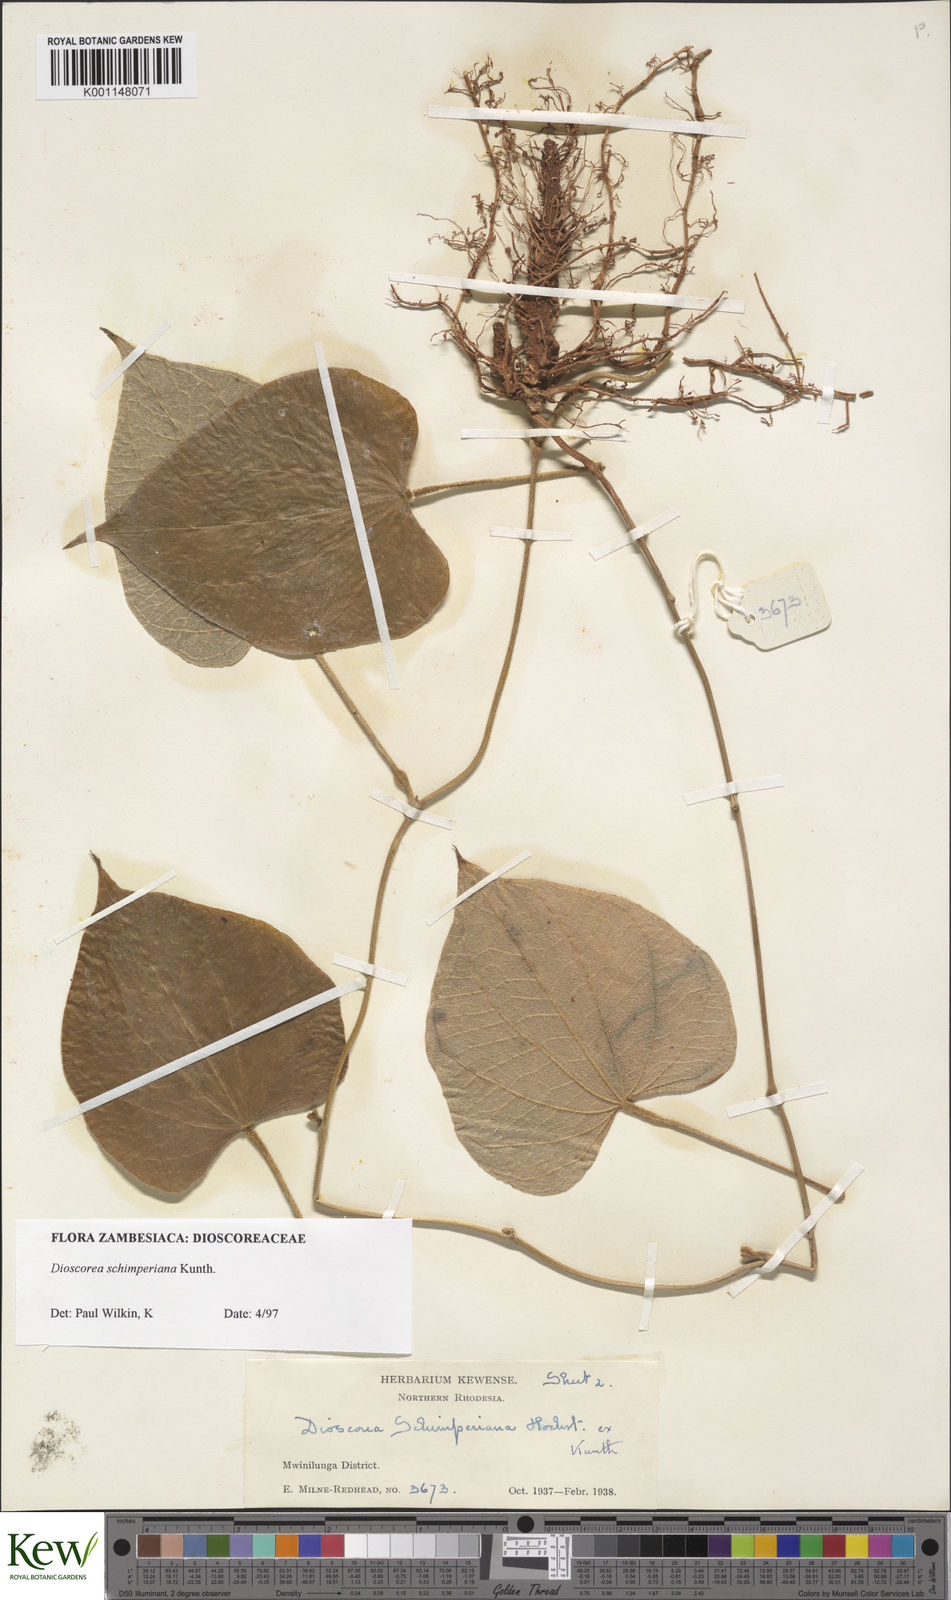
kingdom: Plantae
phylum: Tracheophyta
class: Liliopsida
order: Dioscoreales
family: Dioscoreaceae
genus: Dioscorea
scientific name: Dioscorea schimperiana
